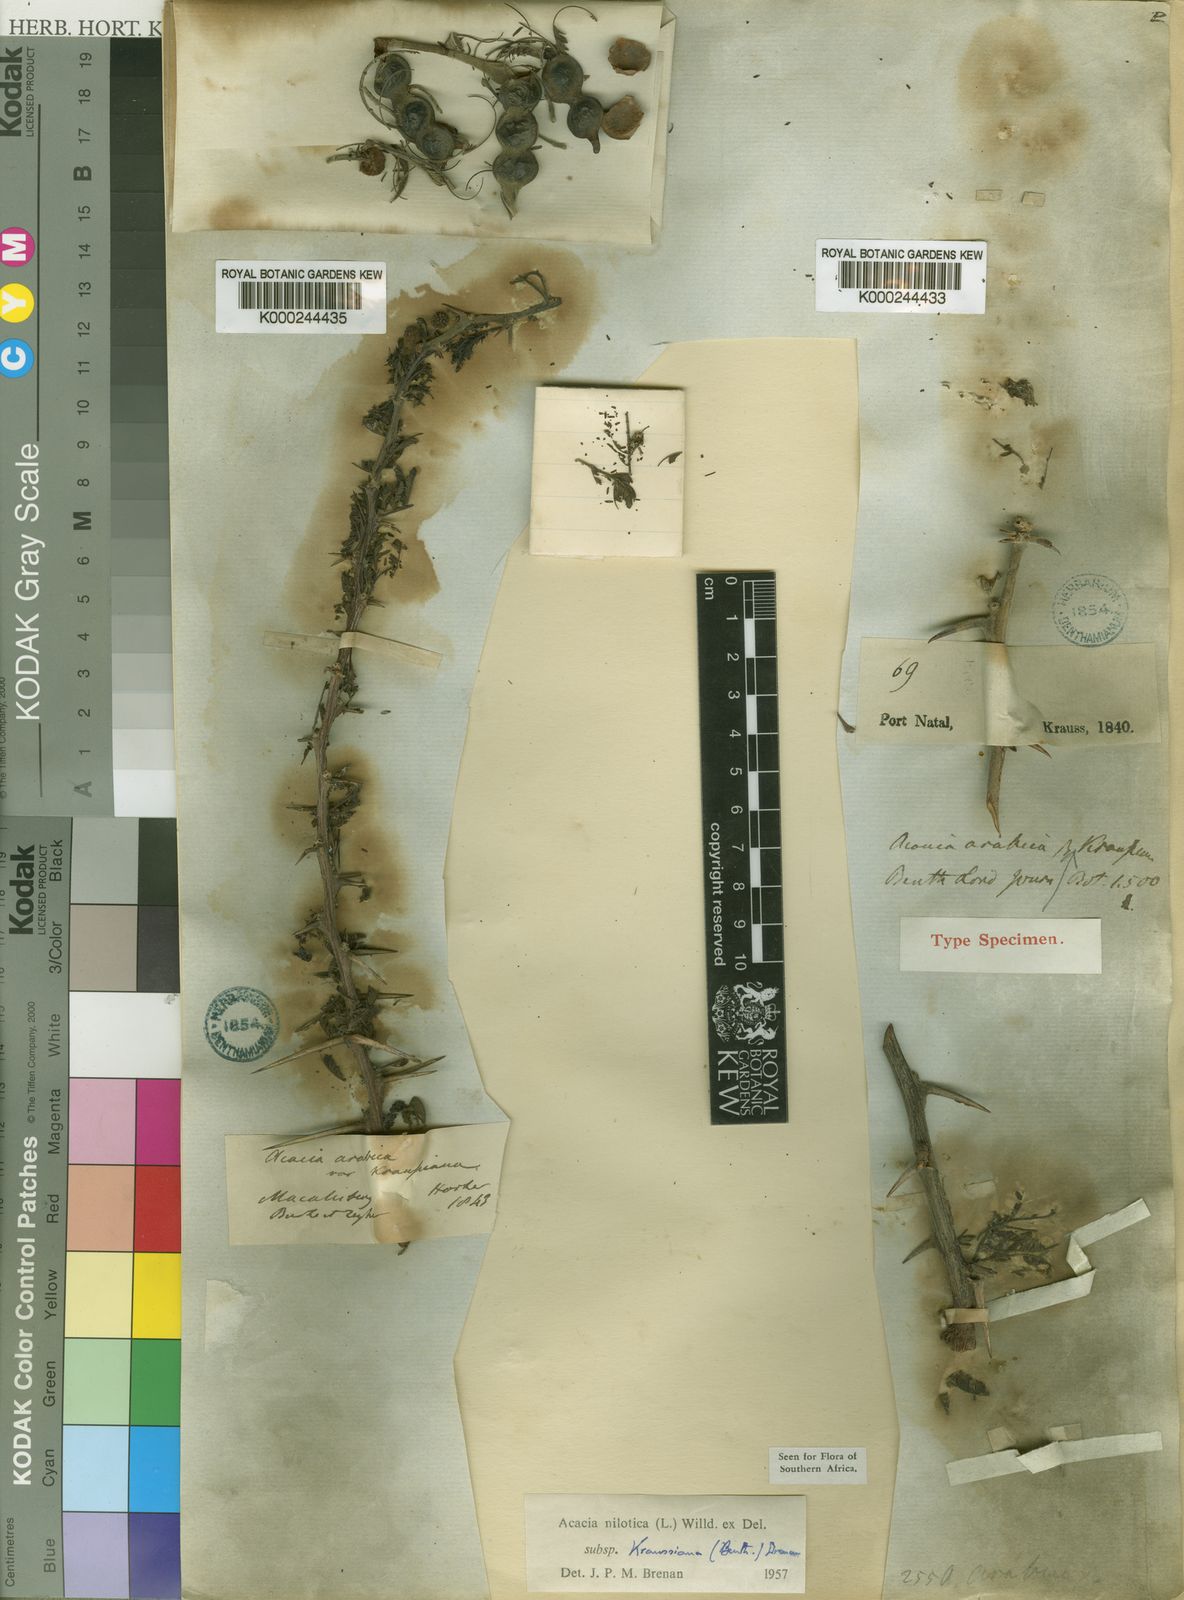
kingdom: Plantae
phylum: Tracheophyta
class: Magnoliopsida
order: Fabales
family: Fabaceae
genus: Vachellia
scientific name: Vachellia nilotica
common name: Arabic gumtree
